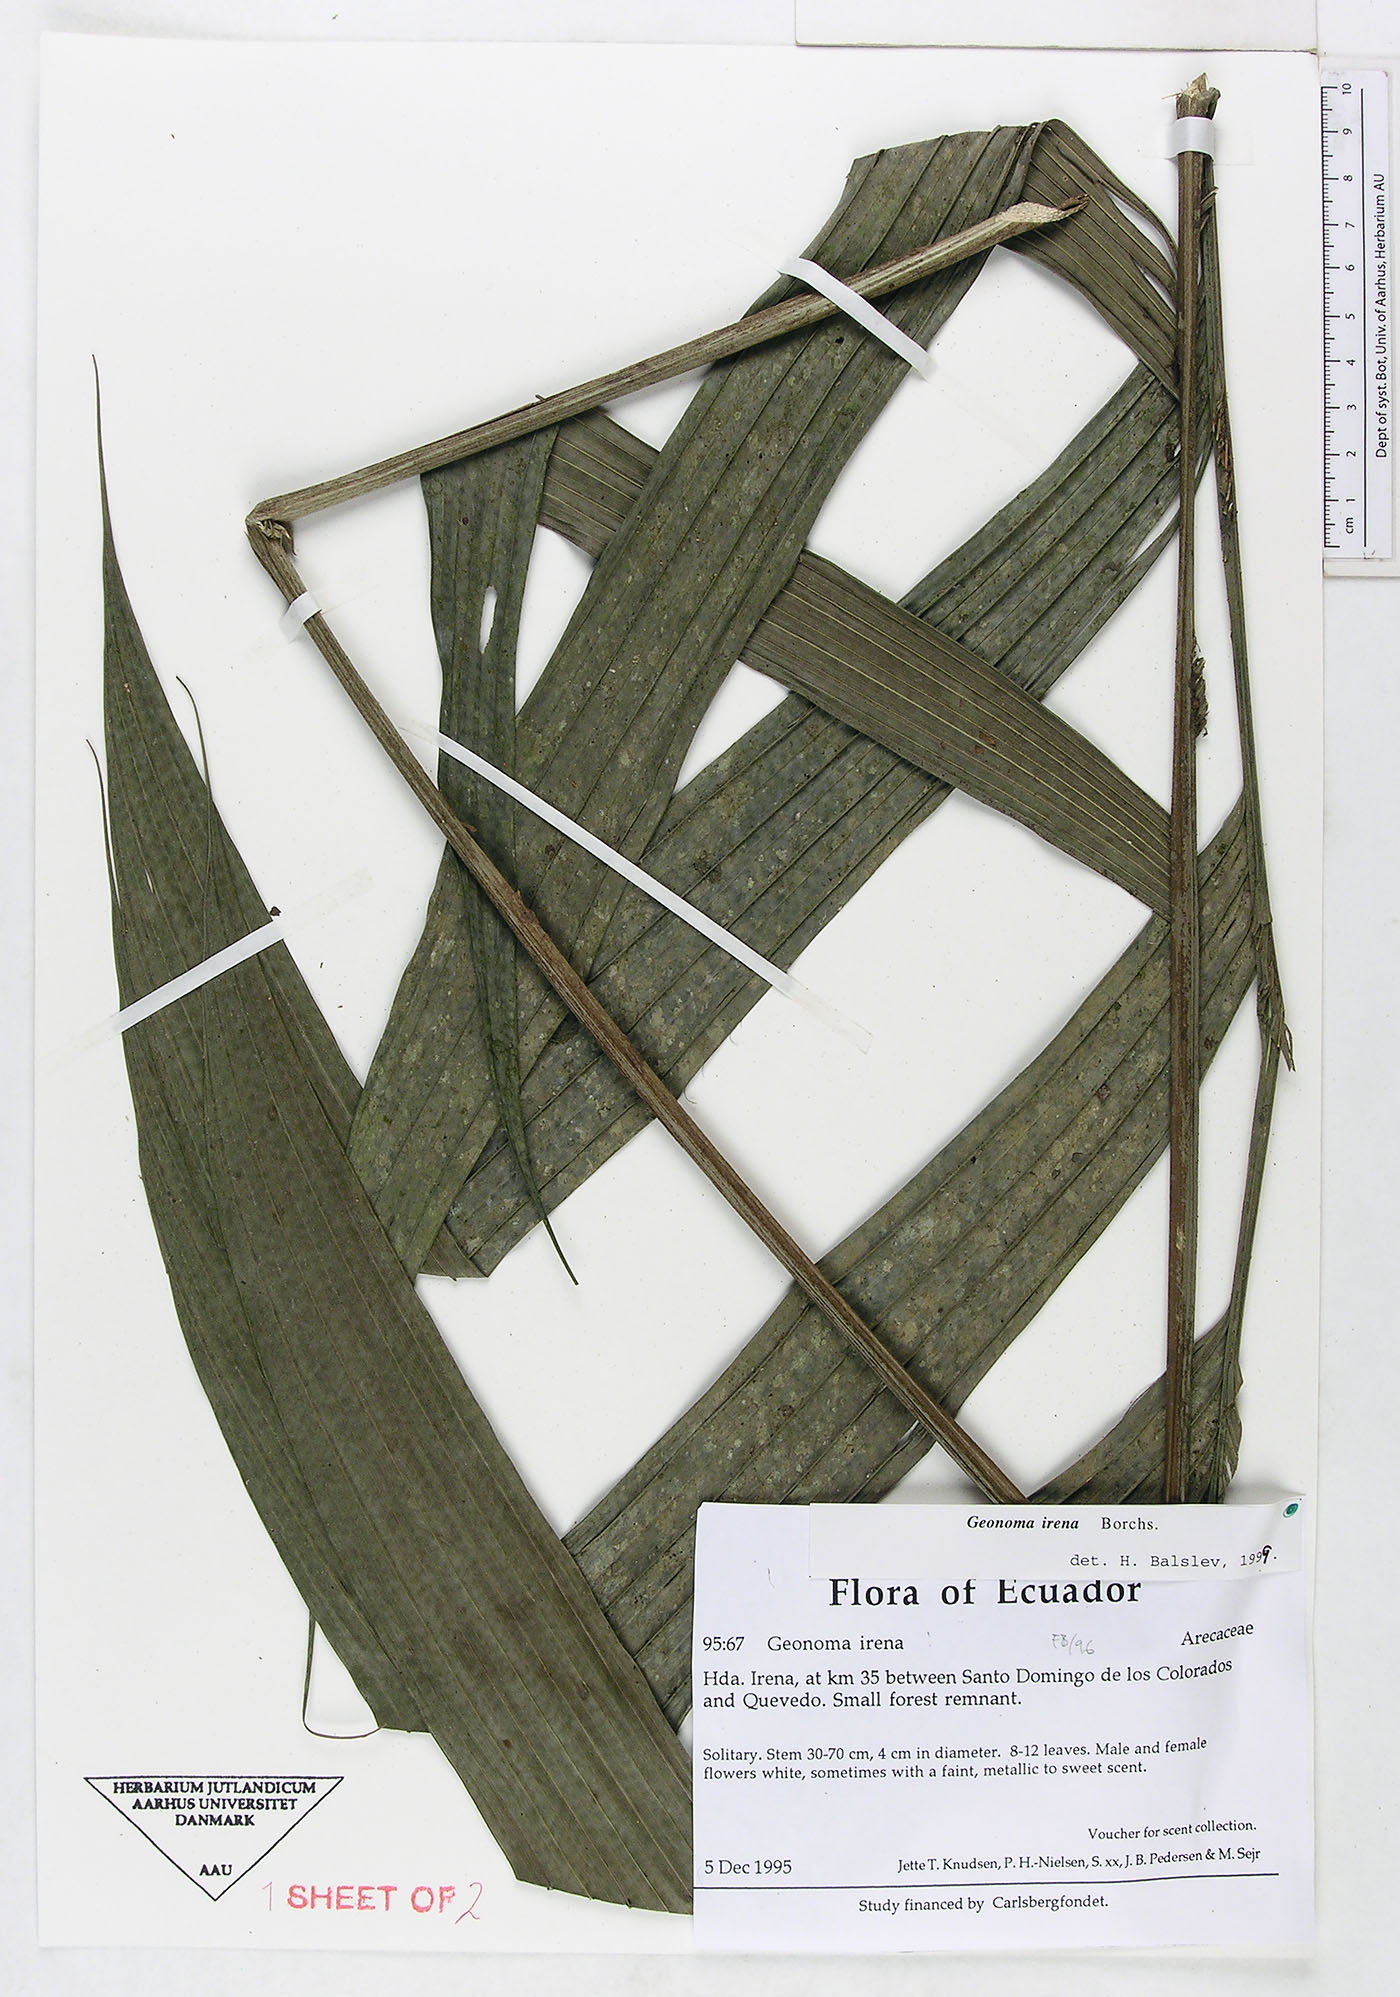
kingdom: Plantae
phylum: Tracheophyta
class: Liliopsida
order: Arecales
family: Arecaceae
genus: Geonoma
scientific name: Geonoma cuneata
